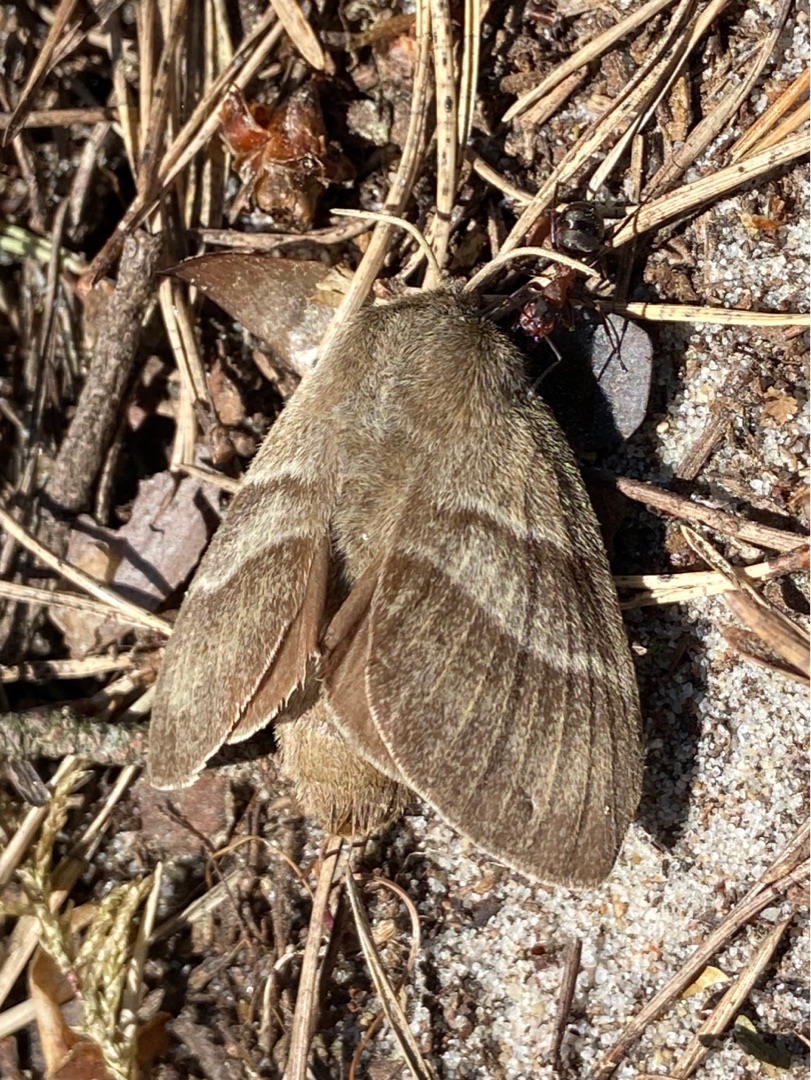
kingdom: Animalia
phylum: Arthropoda
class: Insecta
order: Lepidoptera
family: Lasiocampidae
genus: Macrothylacia
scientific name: Macrothylacia rubi
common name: Brombærspinder
